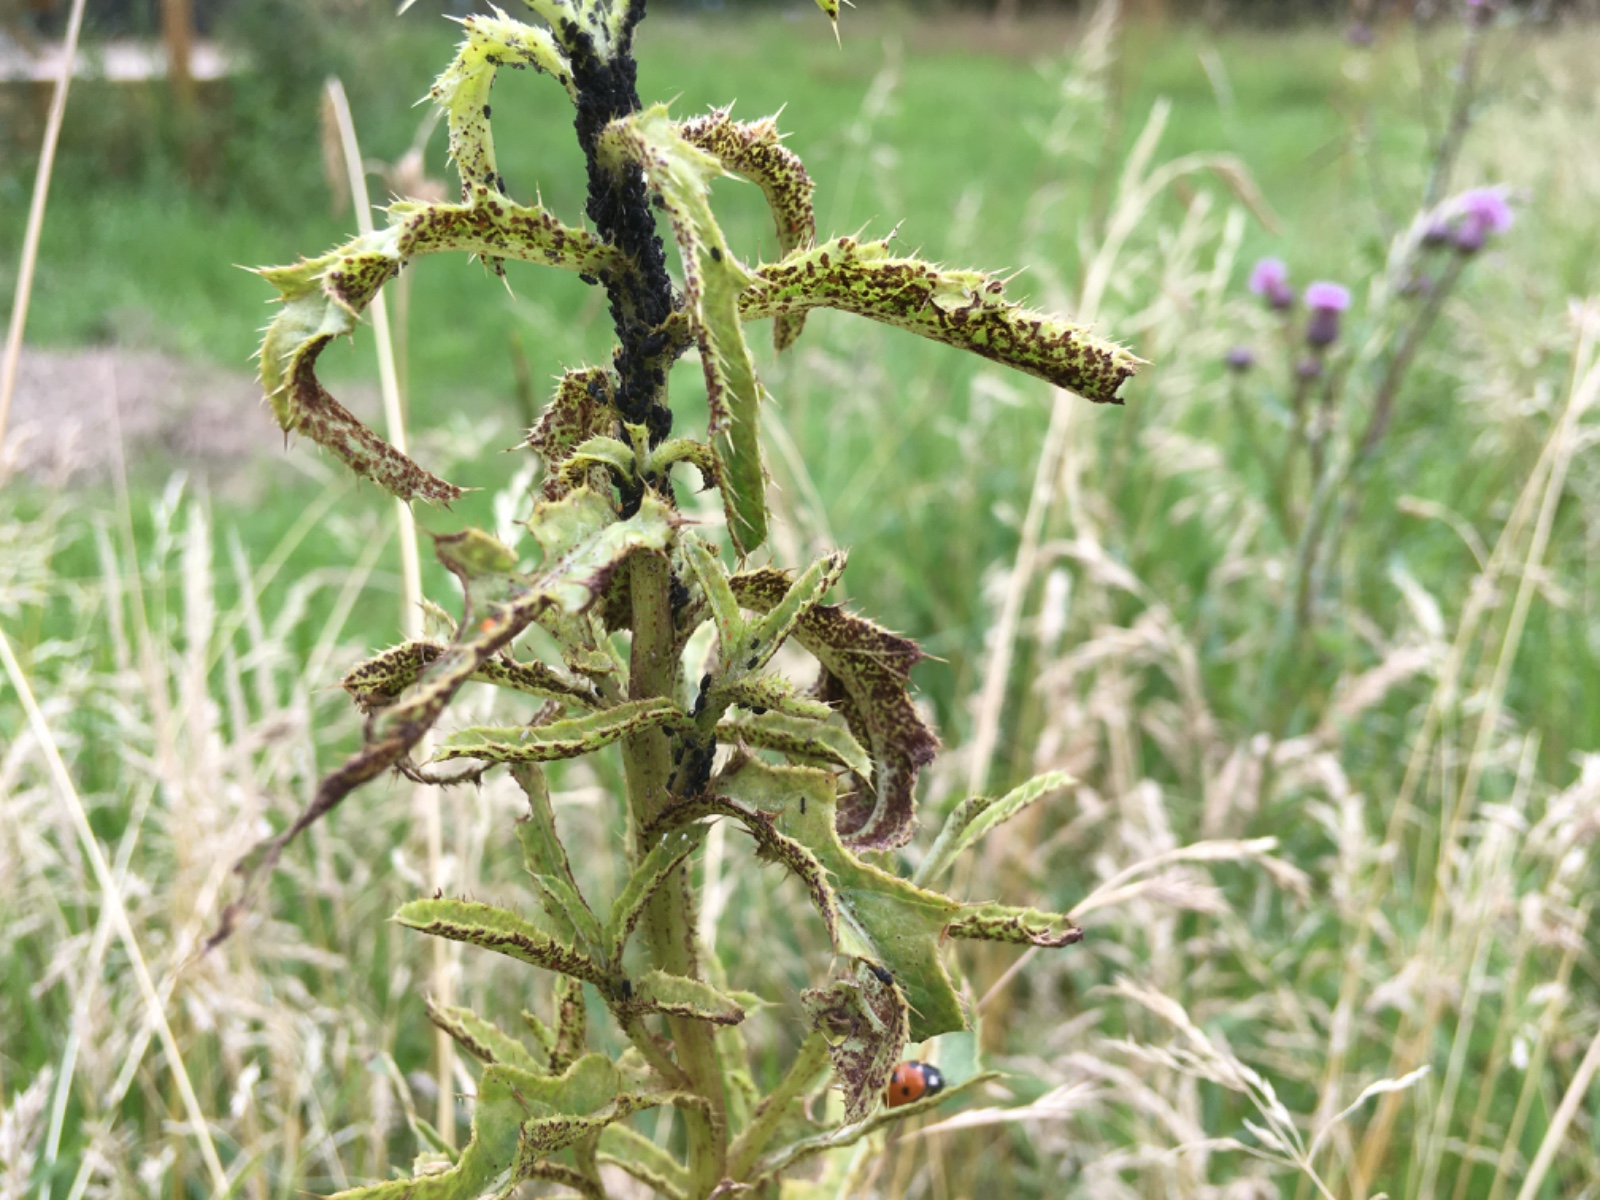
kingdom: Fungi
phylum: Basidiomycota
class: Pucciniomycetes
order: Pucciniales
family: Pucciniaceae
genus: Puccinia
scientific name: Puccinia suaveolens
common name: tidsel-tvecellerust
